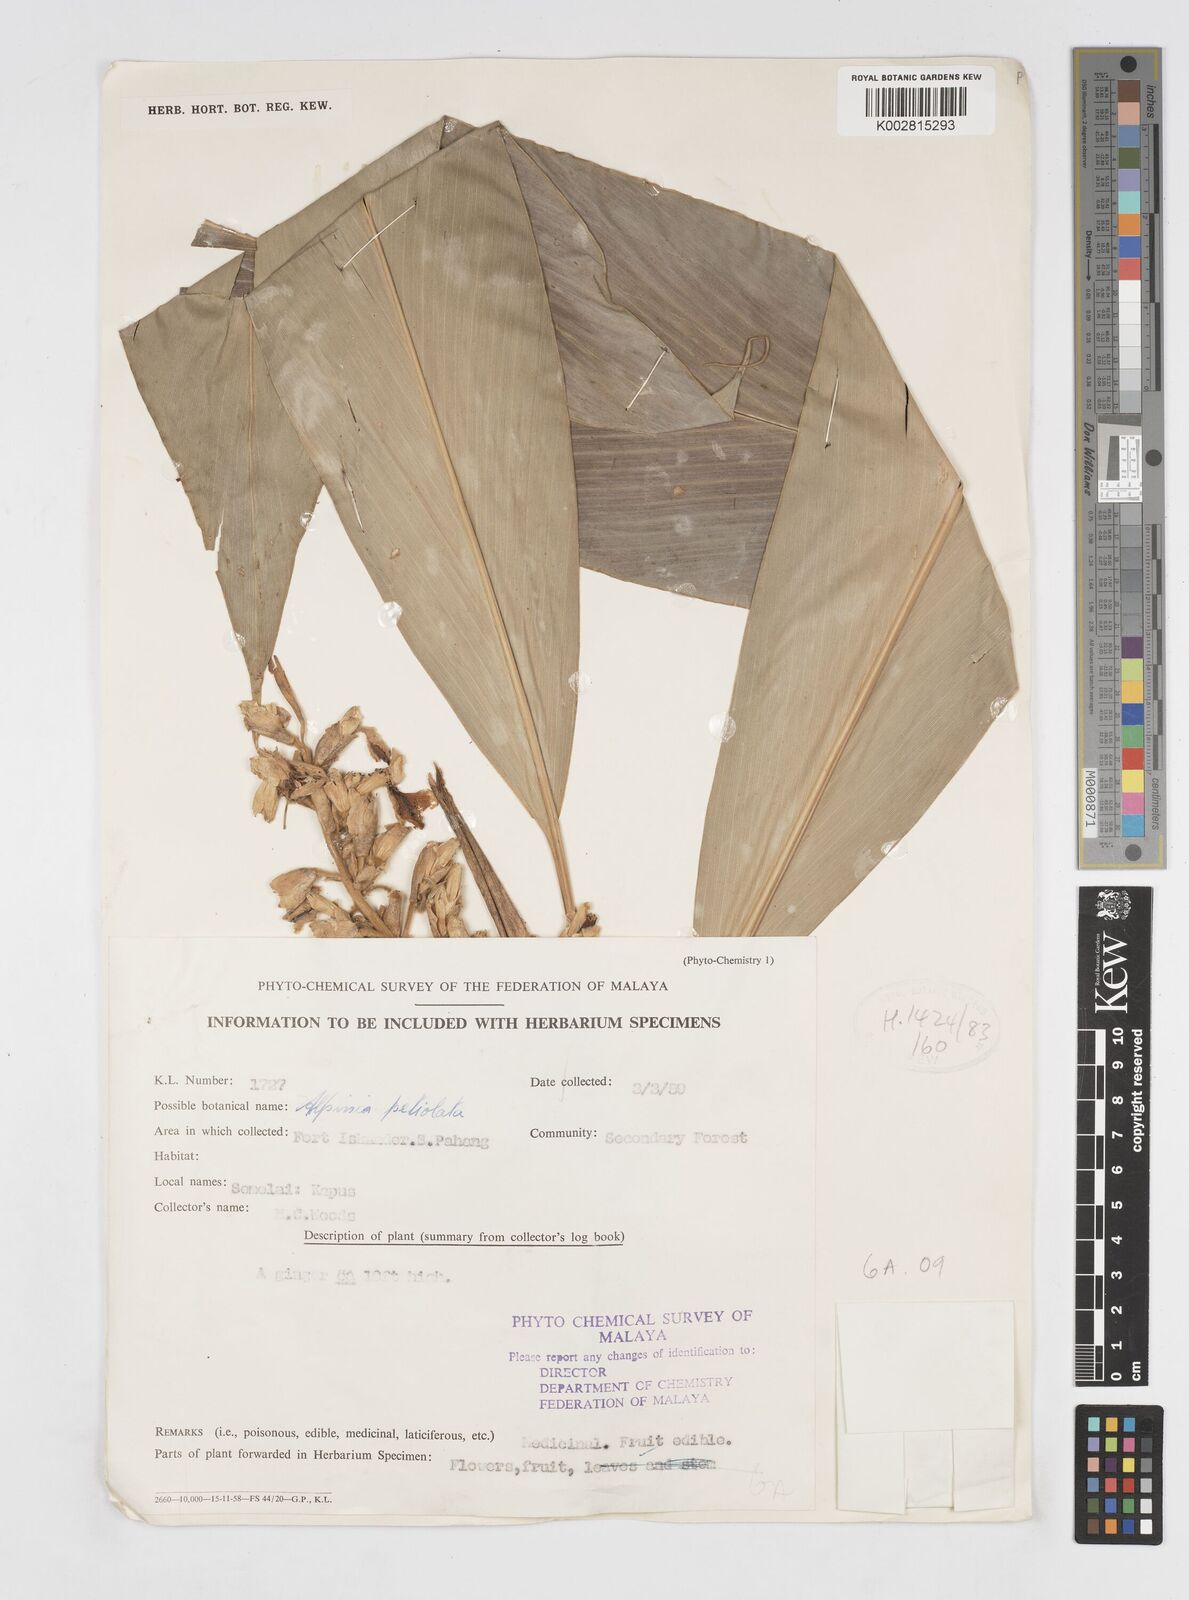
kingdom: Plantae
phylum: Tracheophyta
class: Liliopsida
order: Zingiberales
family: Zingiberaceae
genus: Alpinia
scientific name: Alpinia petiolata
